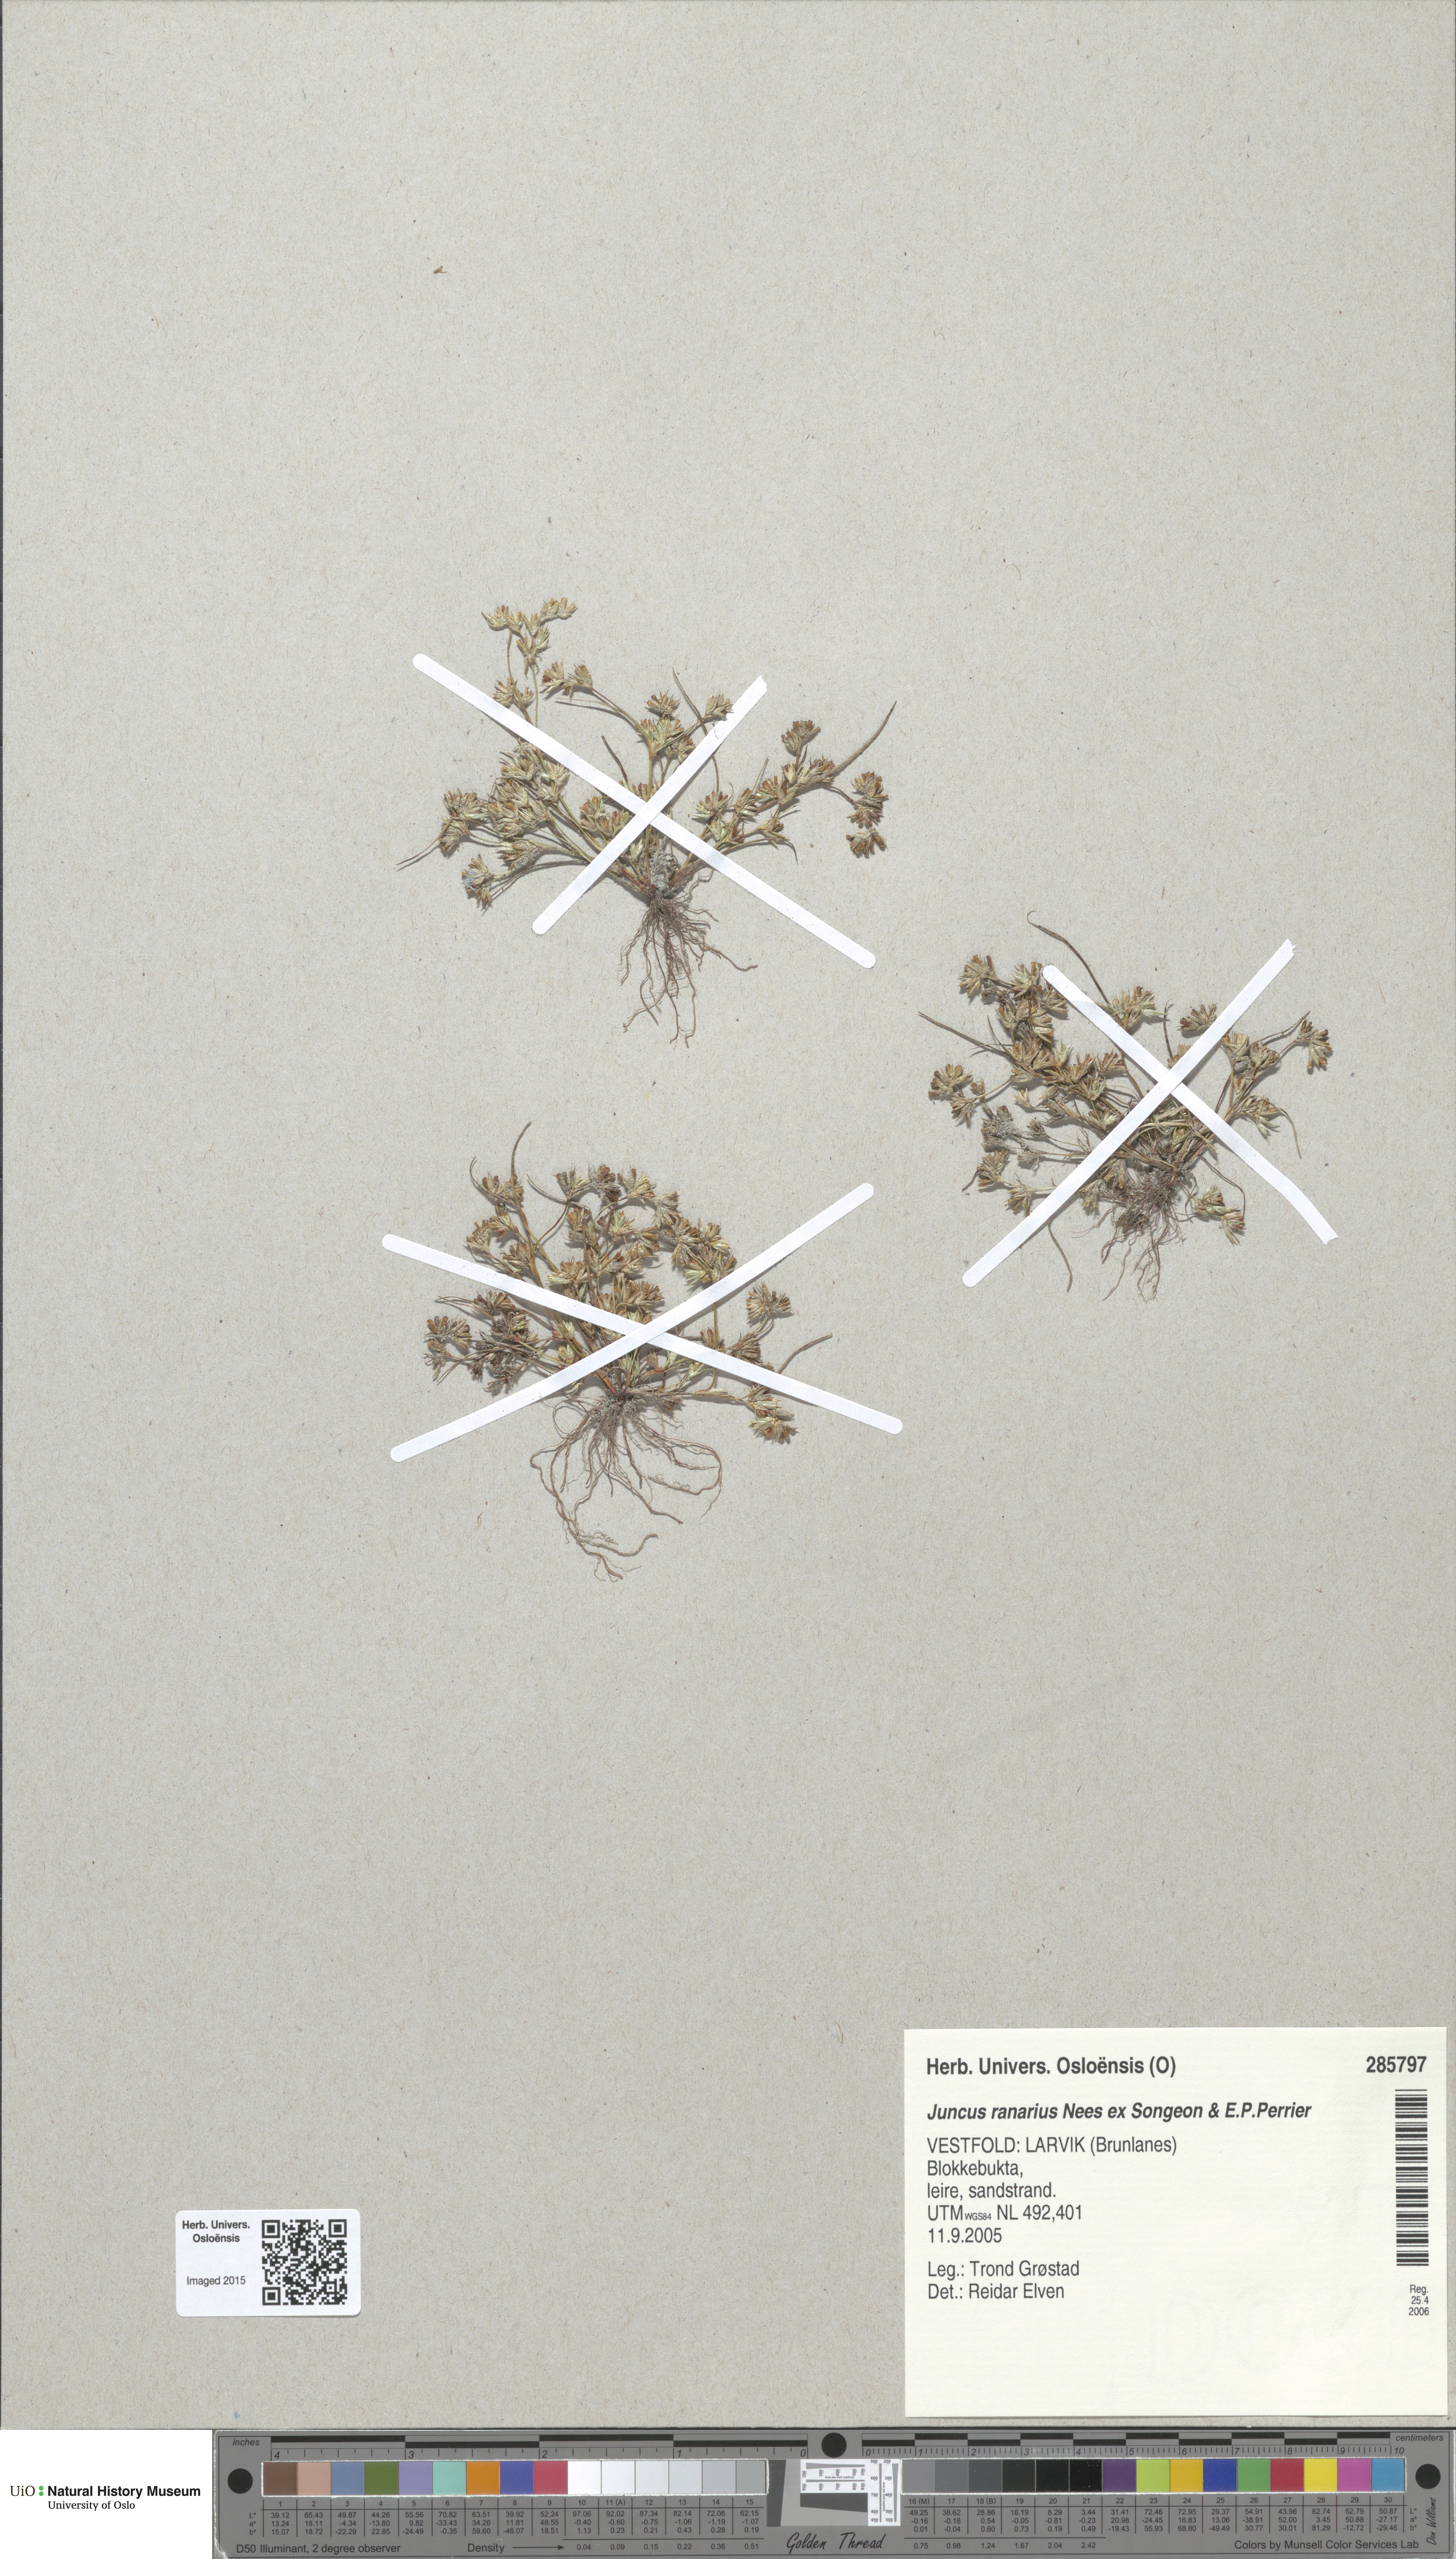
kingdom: Plantae
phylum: Tracheophyta
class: Liliopsida
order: Poales
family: Juncaceae
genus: Juncus
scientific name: Juncus ranarius
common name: Frog rush
